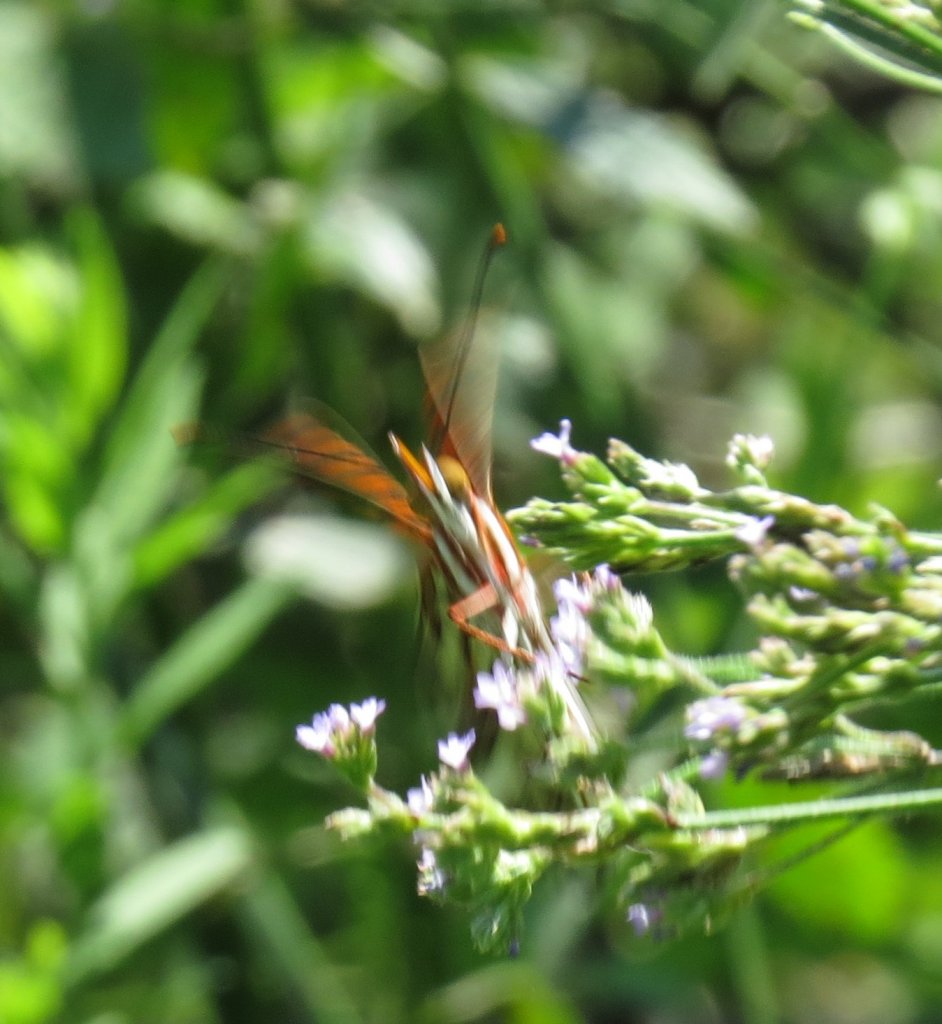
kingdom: Animalia
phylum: Arthropoda
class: Insecta
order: Lepidoptera
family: Nymphalidae
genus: Dione
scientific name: Dione vanillae
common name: Gulf Fritillary
